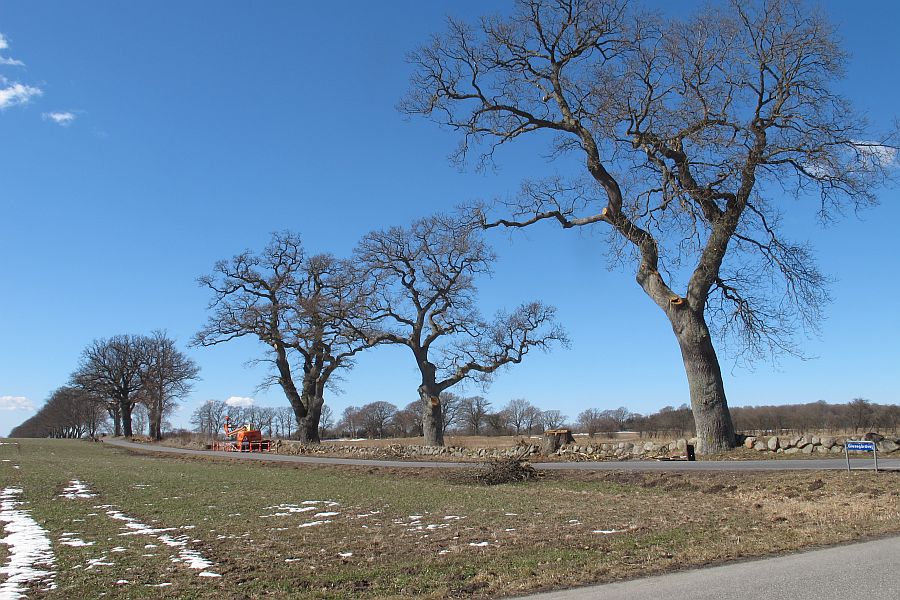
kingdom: Fungi
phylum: Basidiomycota
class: Agaricomycetes
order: Hymenochaetales
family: Hymenochaetaceae
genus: Pseudoinonotus
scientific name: Pseudoinonotus dryadeus
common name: ege-spejlporesvamp
